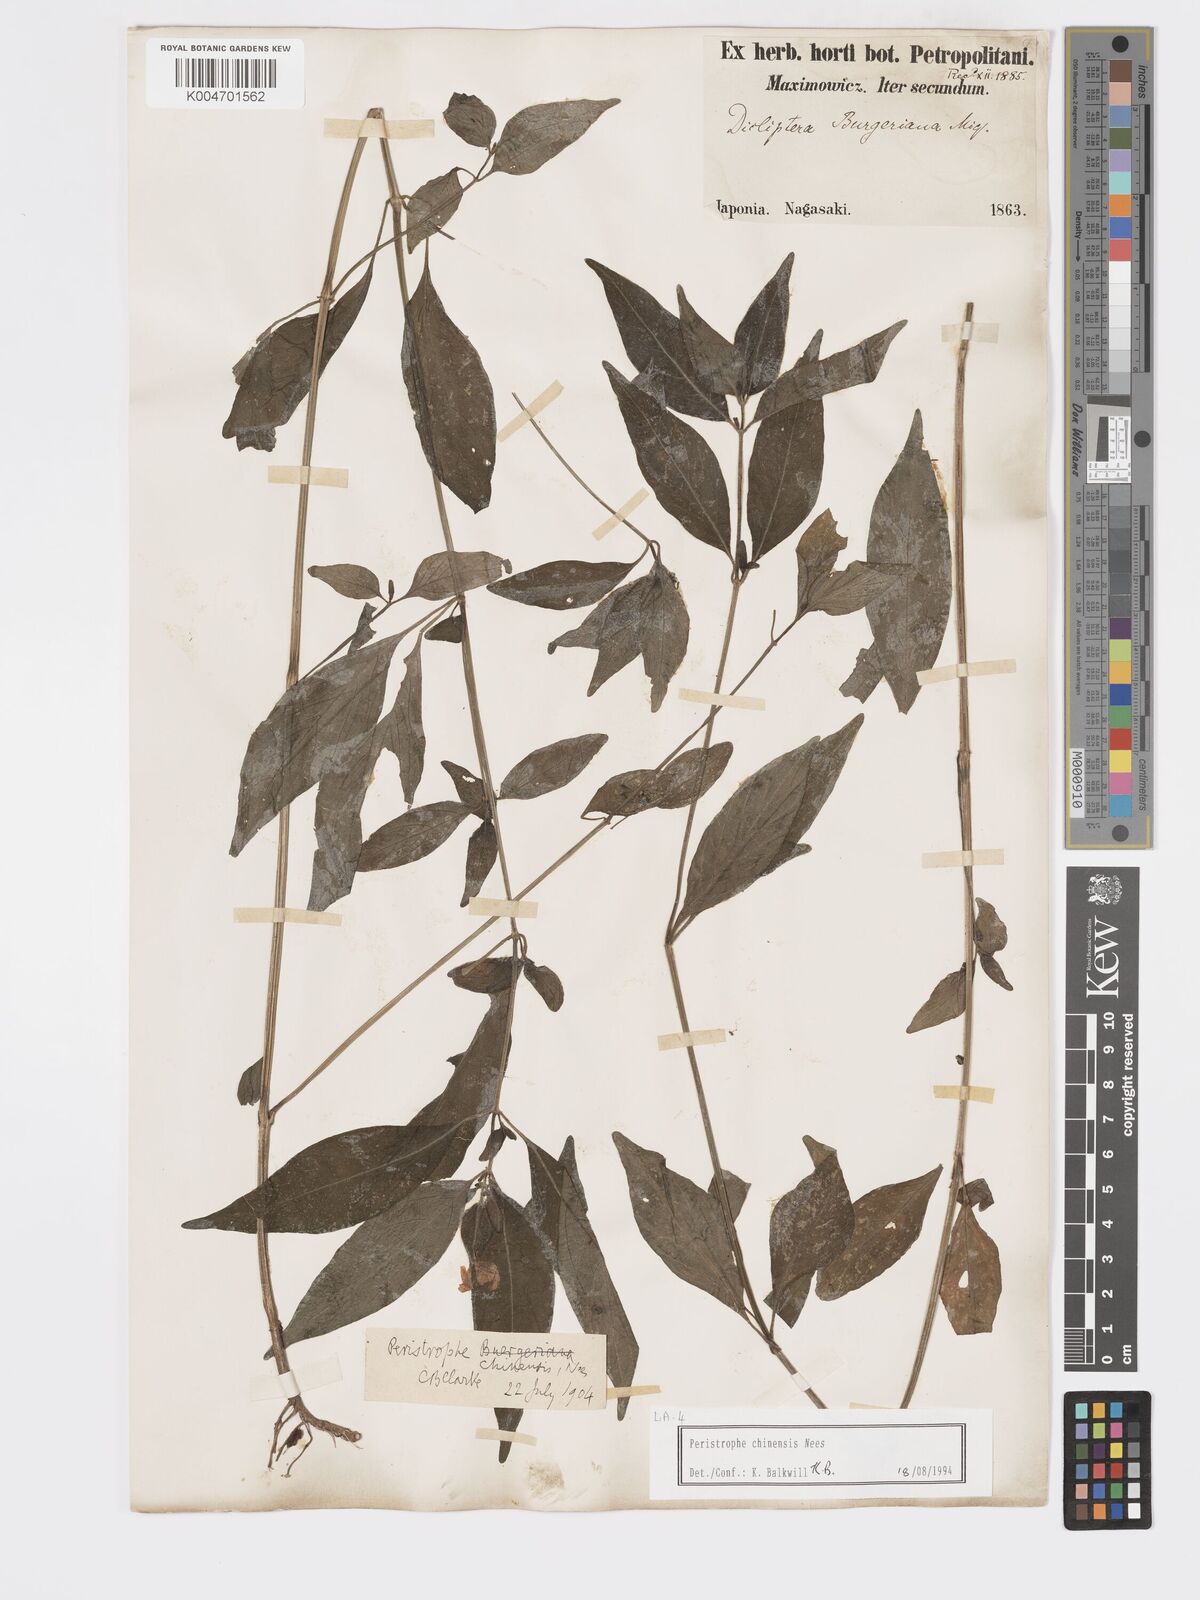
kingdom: Plantae
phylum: Tracheophyta
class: Magnoliopsida
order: Lamiales
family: Acanthaceae
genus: Dicliptera
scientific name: Dicliptera chinensis
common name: Chinese foldwing
